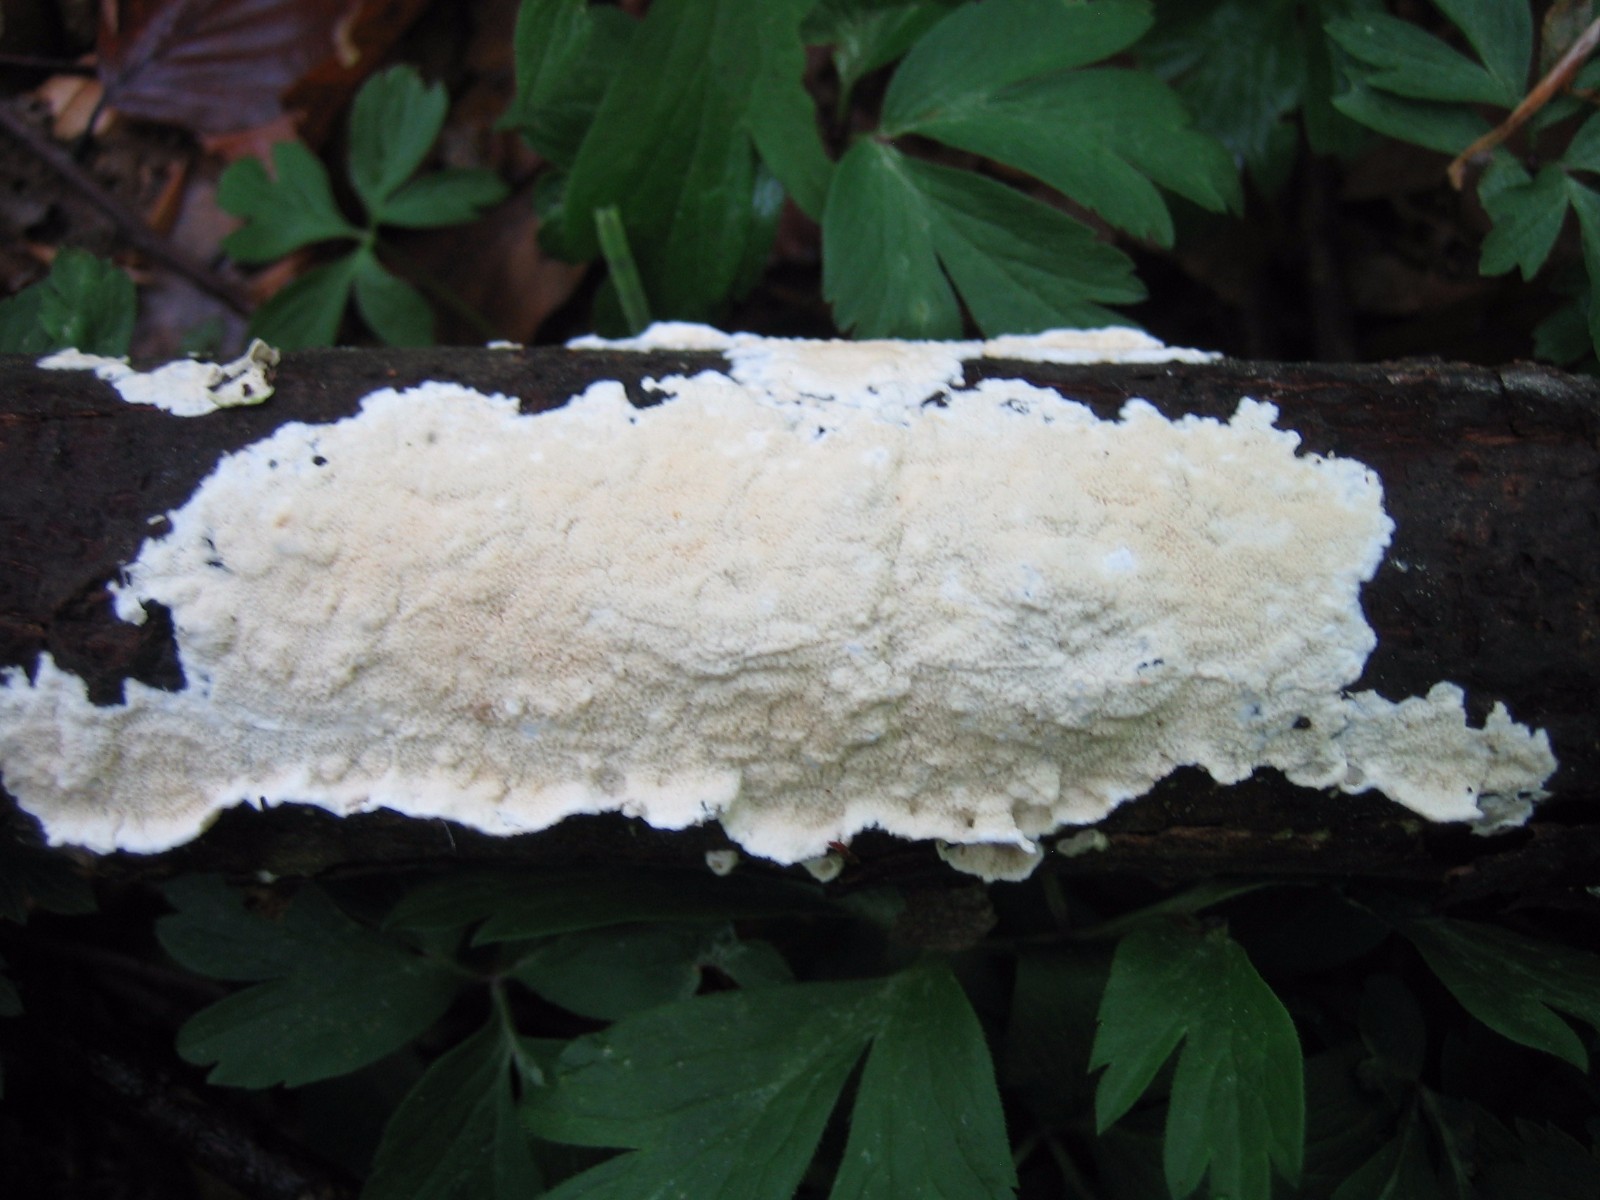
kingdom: Fungi
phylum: Basidiomycota
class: Agaricomycetes
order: Polyporales
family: Irpicaceae
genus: Byssomerulius
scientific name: Byssomerulius corium
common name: læder-åresvamp
